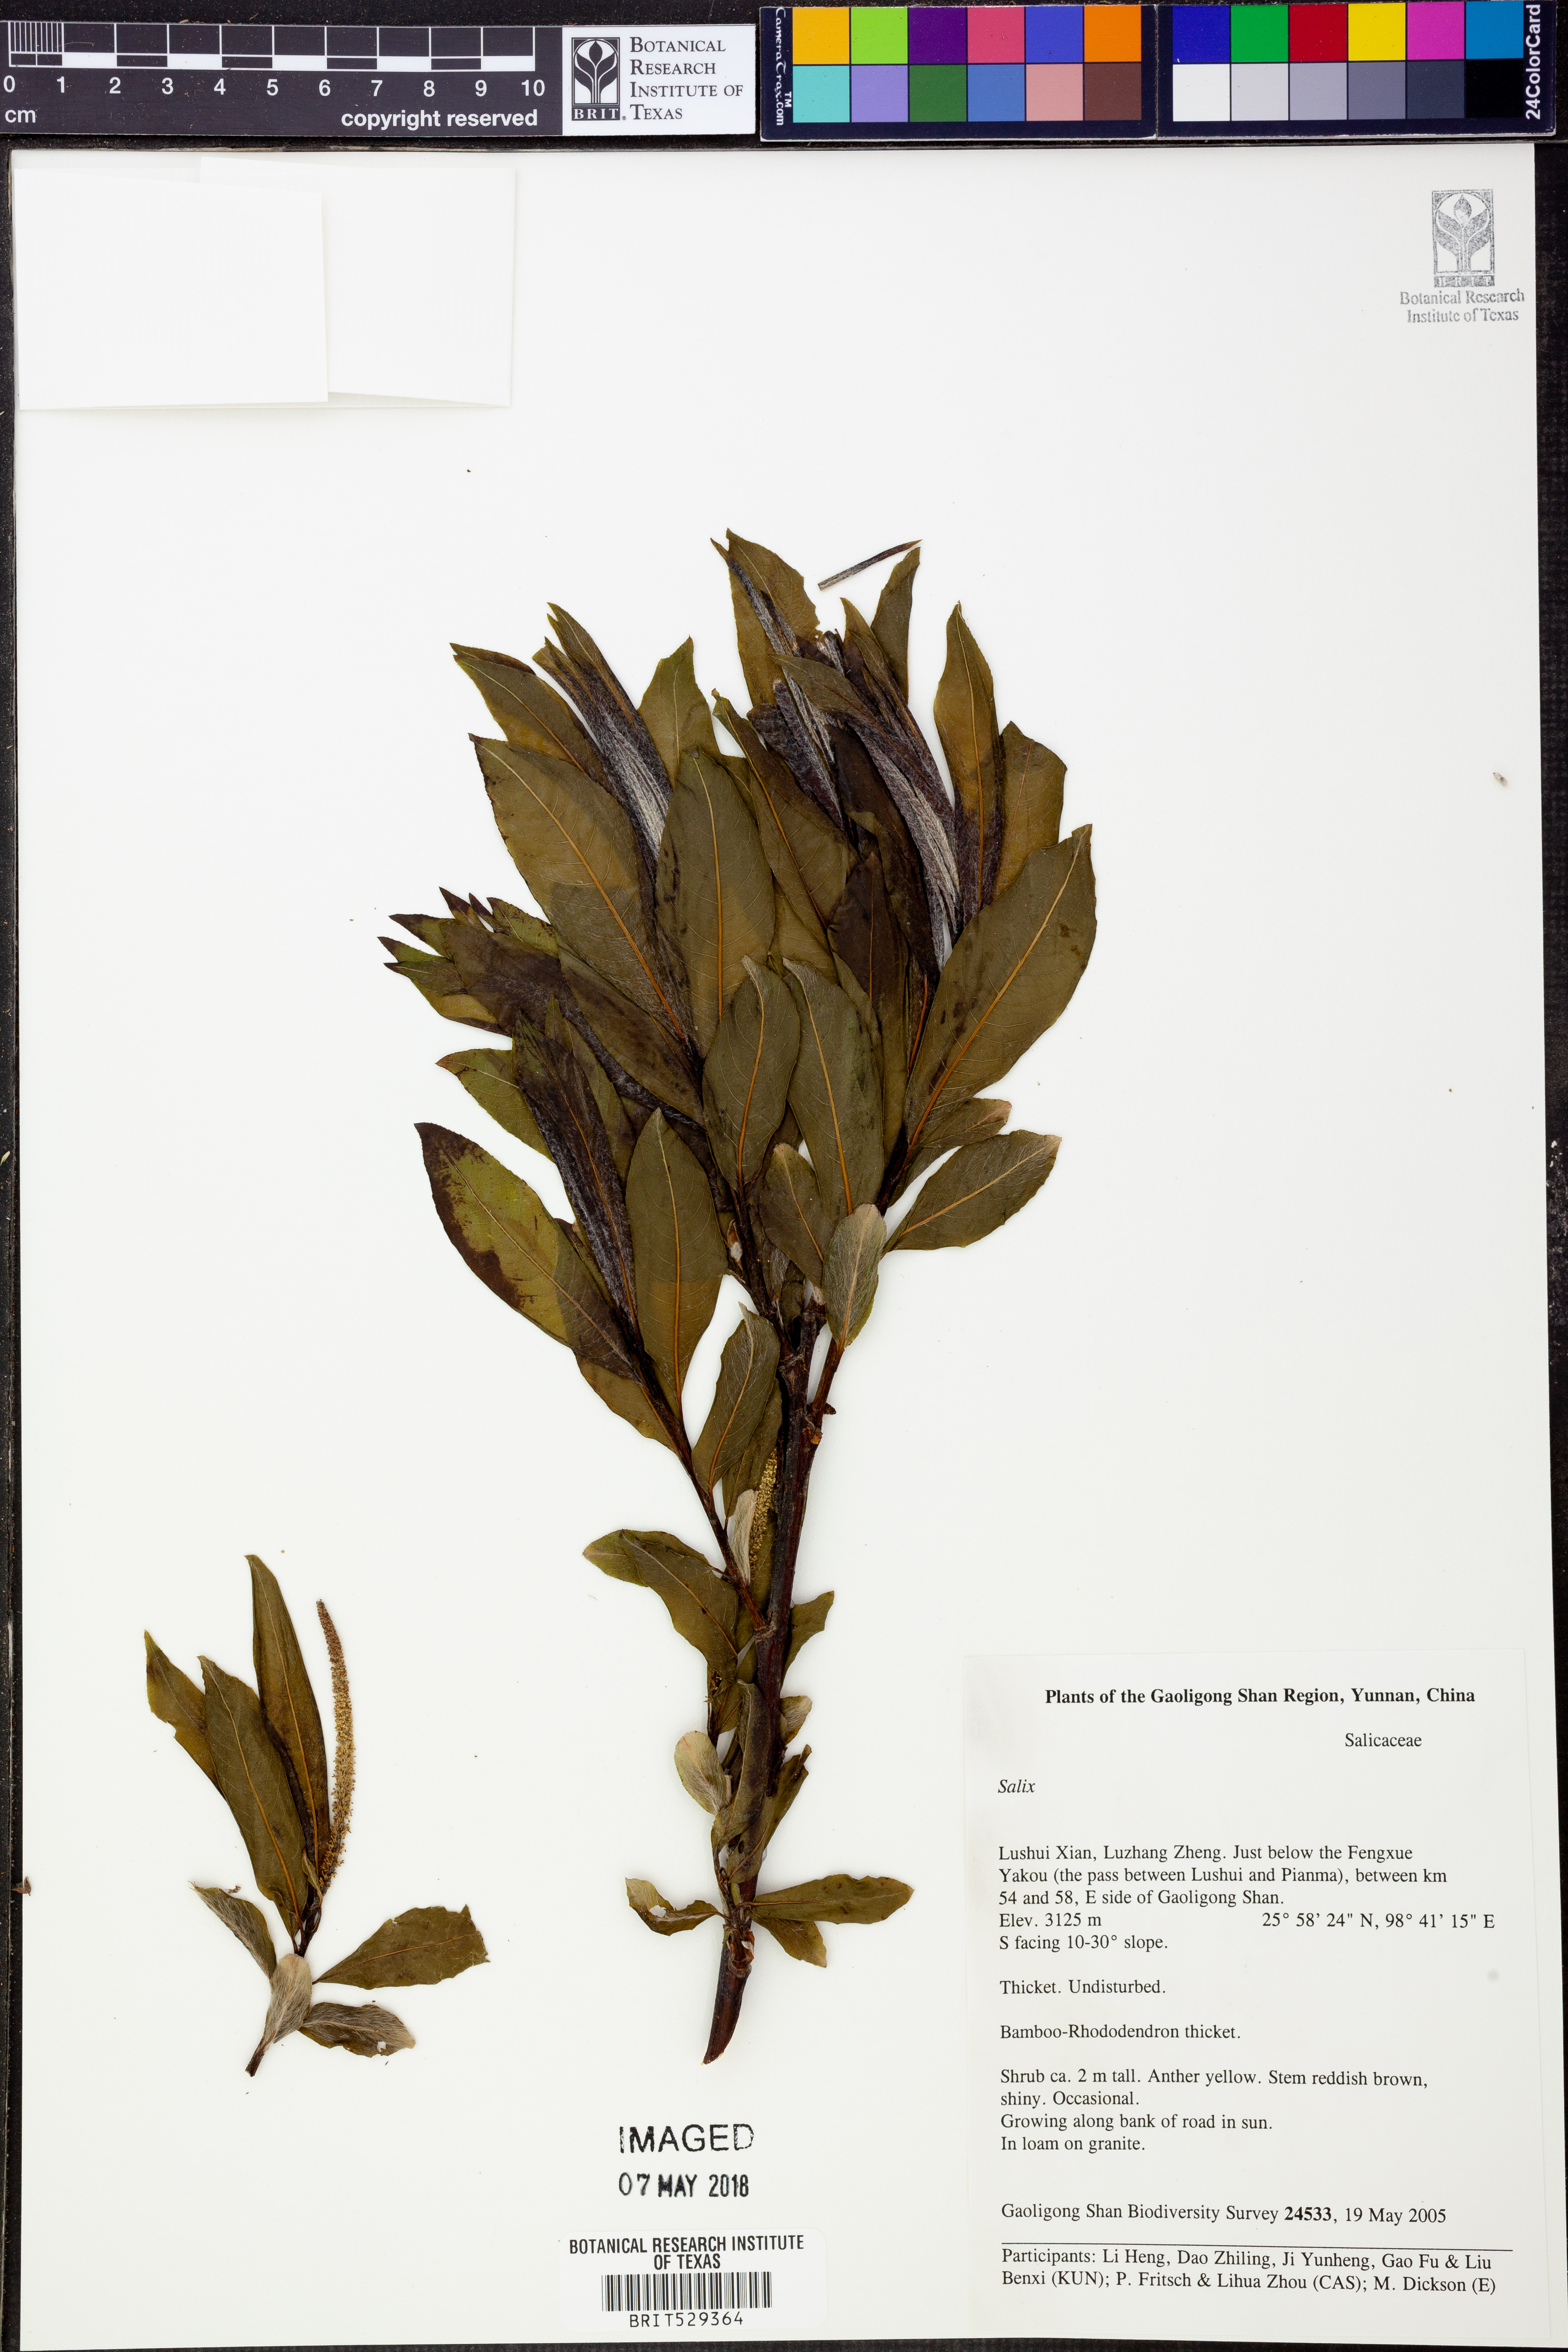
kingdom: Plantae
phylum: Tracheophyta
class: Magnoliopsida
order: Malpighiales
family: Salicaceae
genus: Salix
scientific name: Salix
